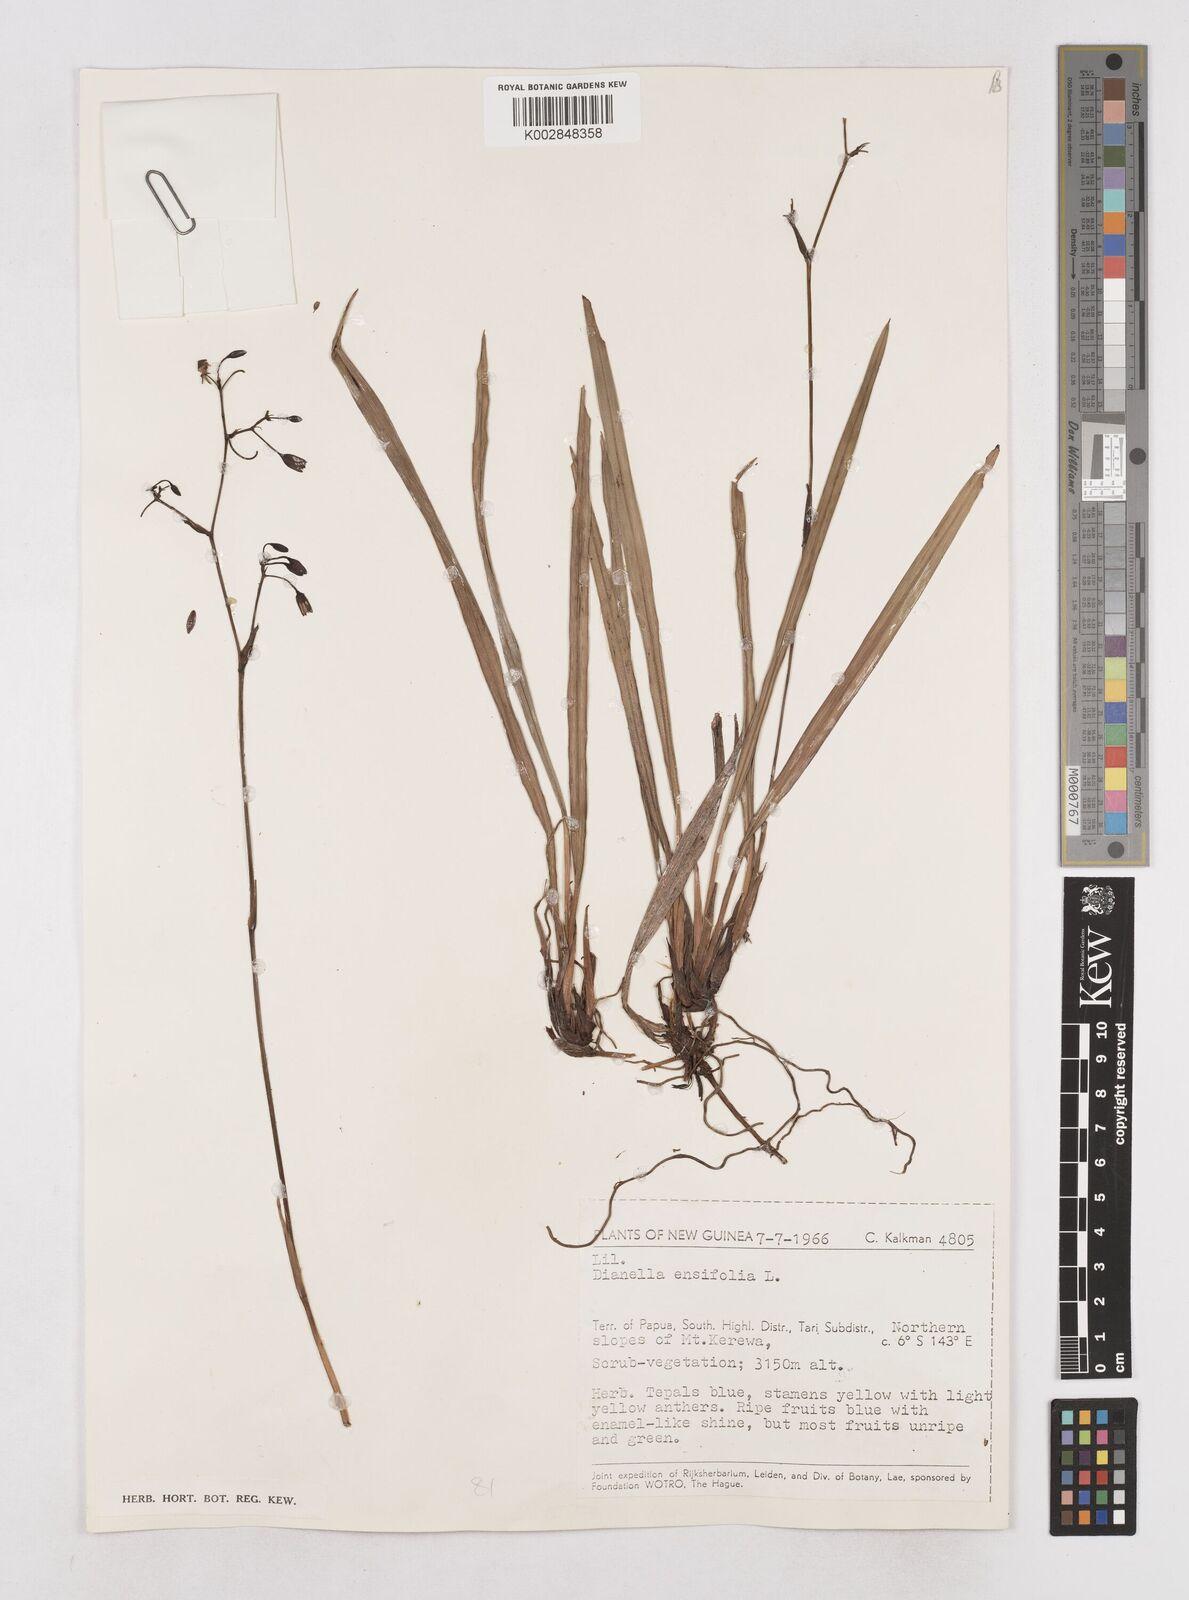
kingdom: Plantae
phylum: Tracheophyta
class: Liliopsida
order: Asparagales
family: Asphodelaceae
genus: Dianella
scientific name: Dianella ensifolia
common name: New zealand lilyplant
